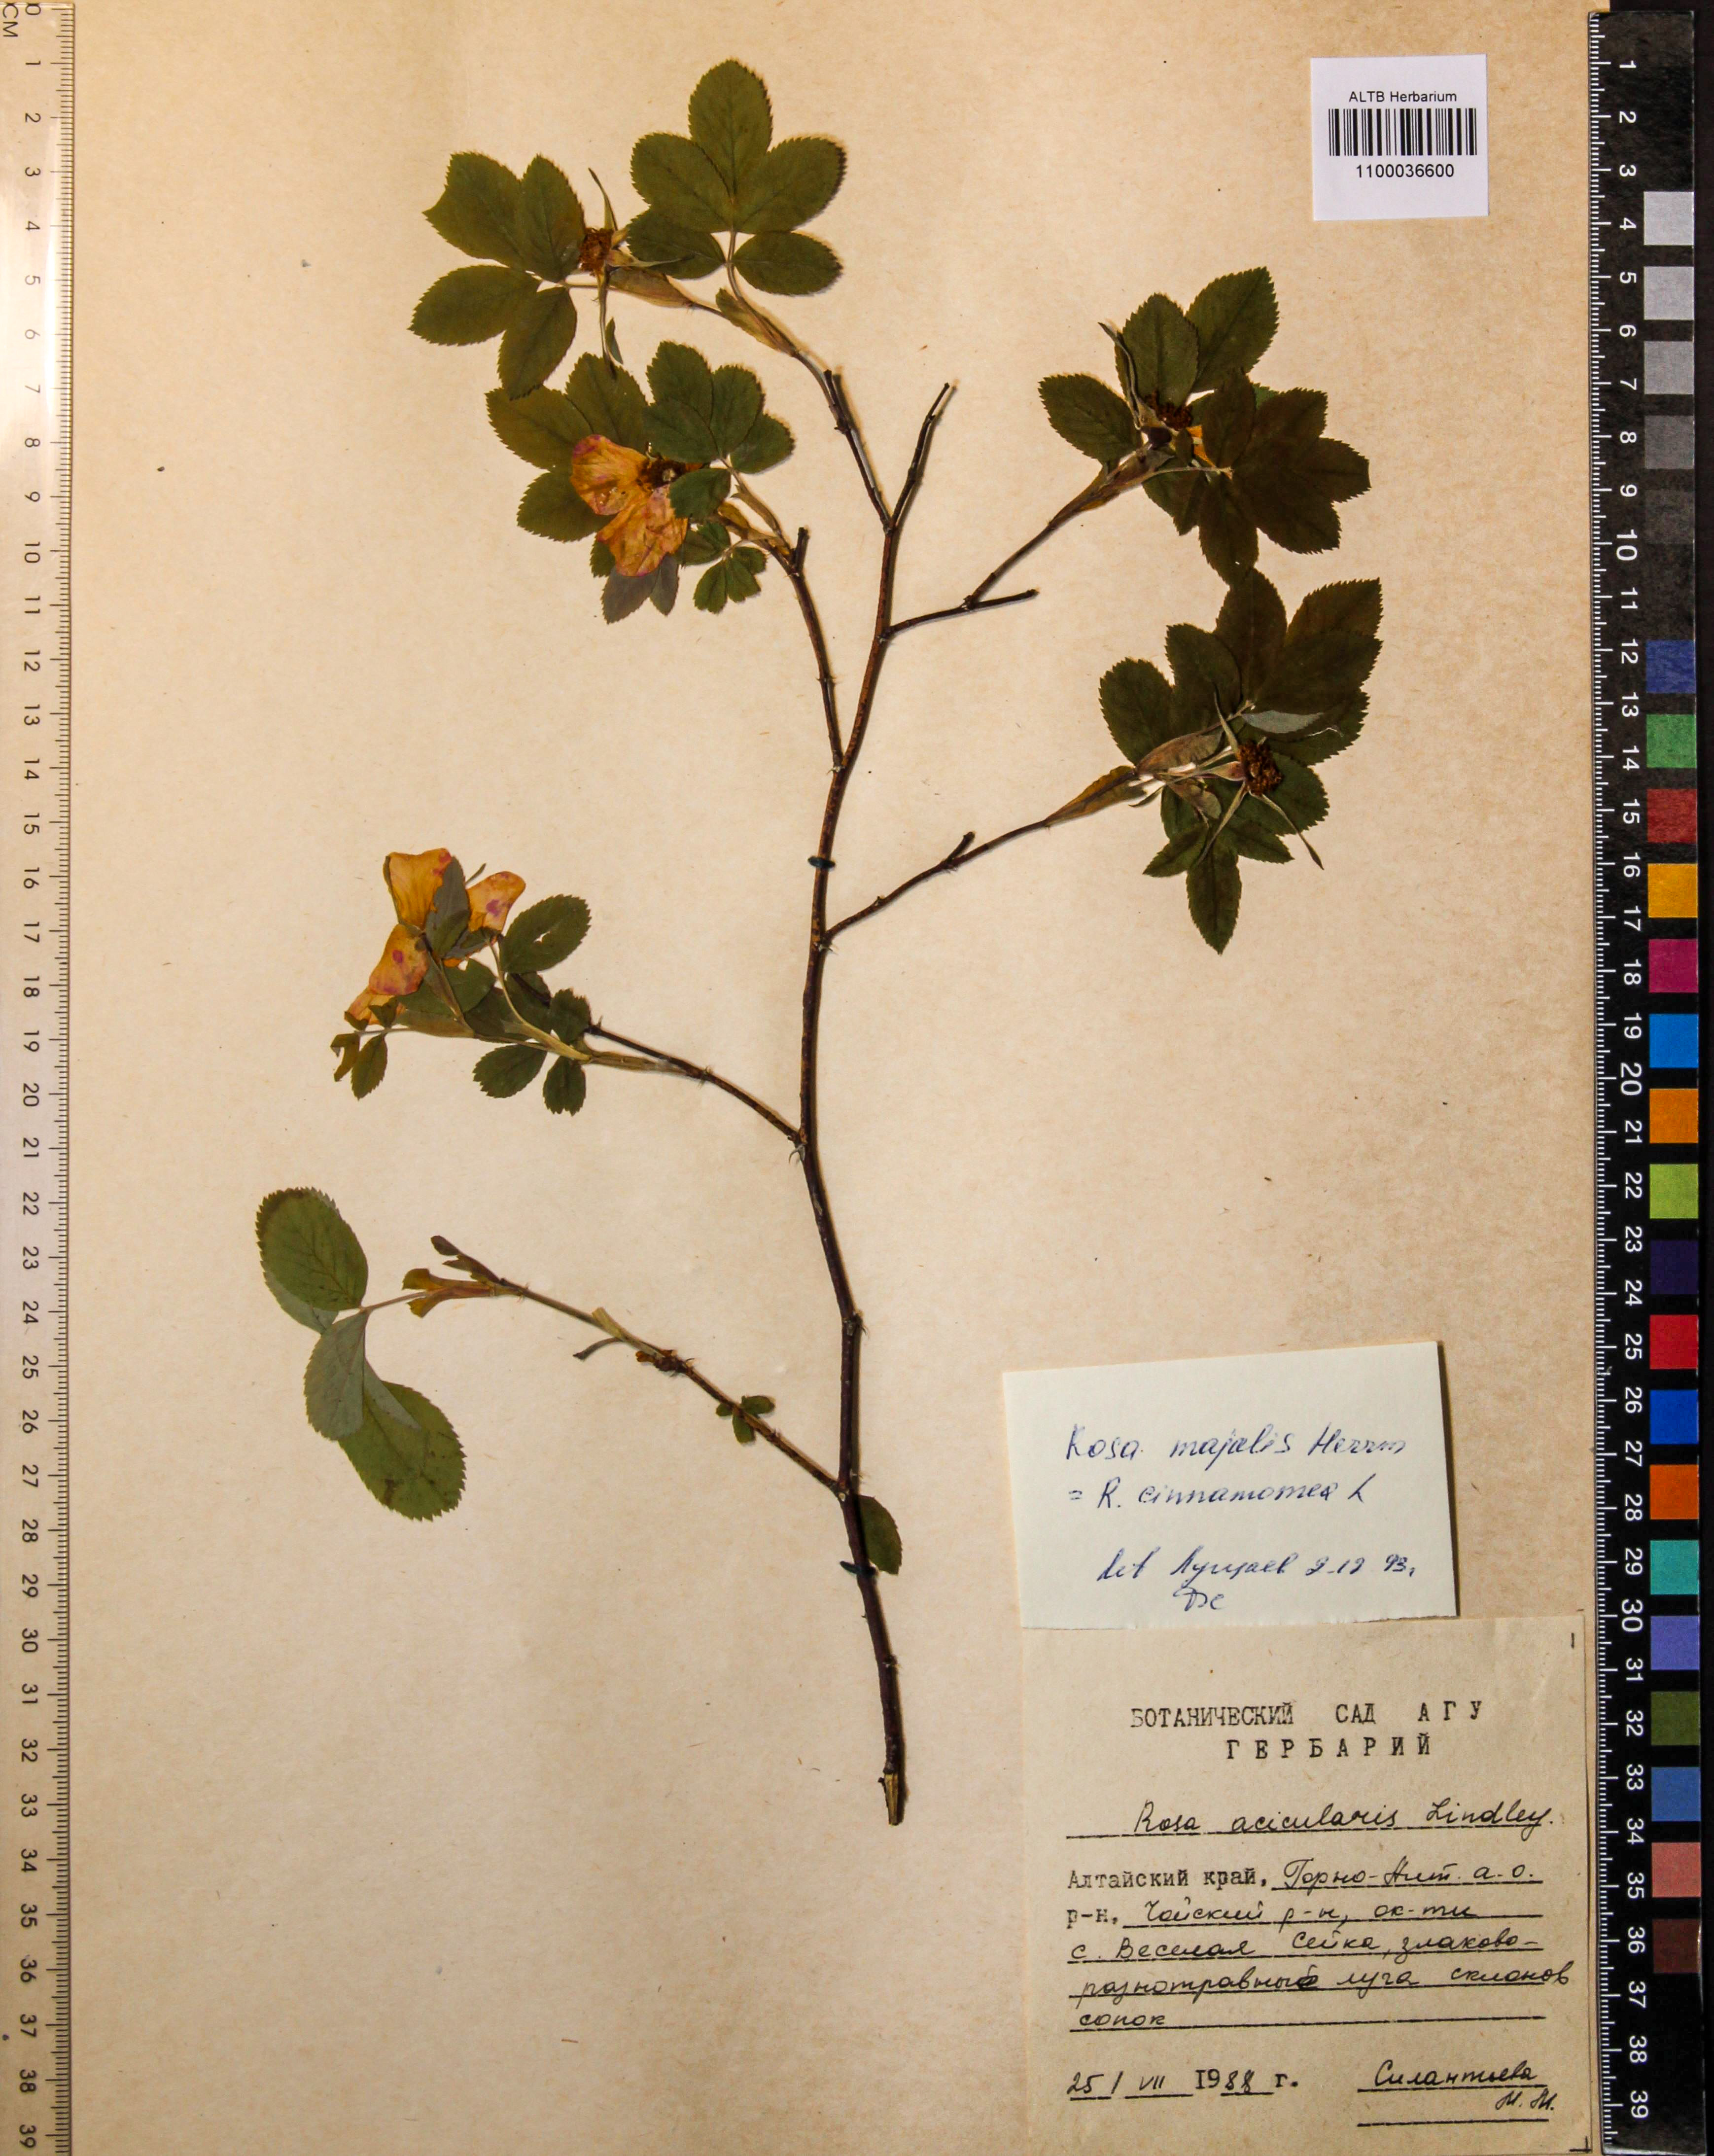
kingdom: Plantae
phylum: Tracheophyta
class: Magnoliopsida
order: Rosales
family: Rosaceae
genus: Rosa
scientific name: Rosa majalis
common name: Cinnamon rose
